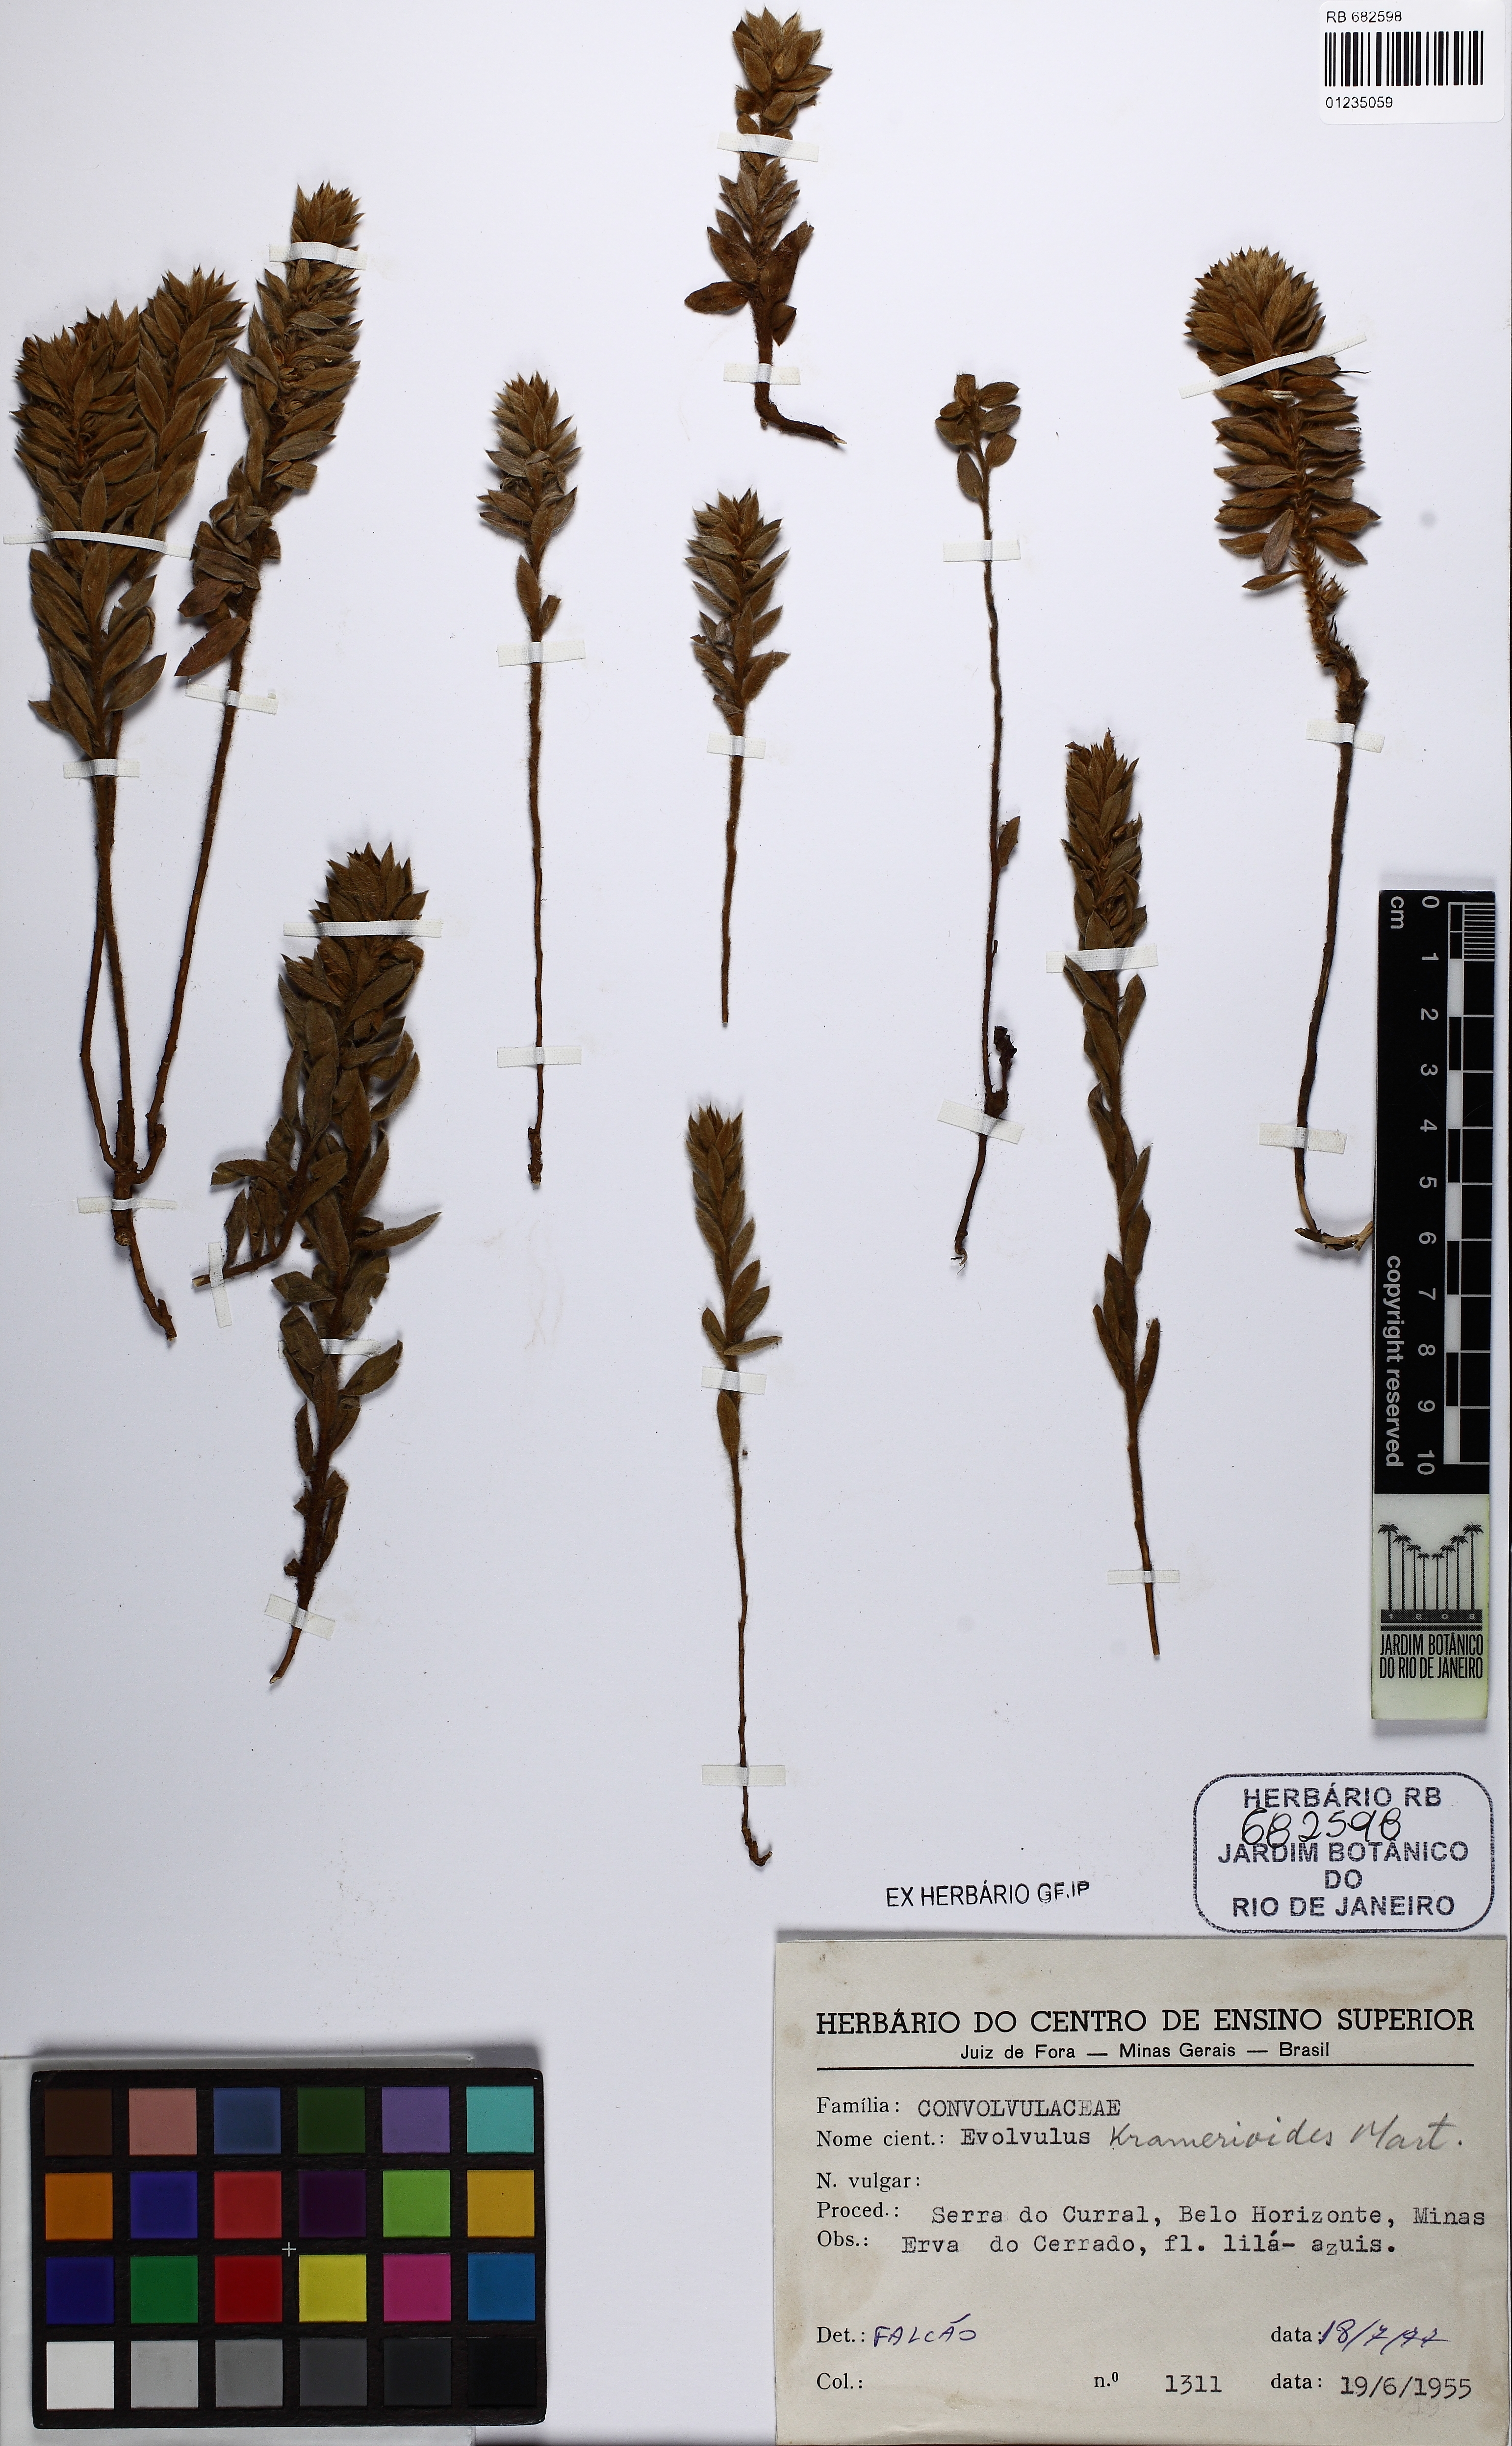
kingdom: Plantae
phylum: Tracheophyta
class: Magnoliopsida
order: Solanales
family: Convolvulaceae
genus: Evolvulus
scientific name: Evolvulus kramerioides
